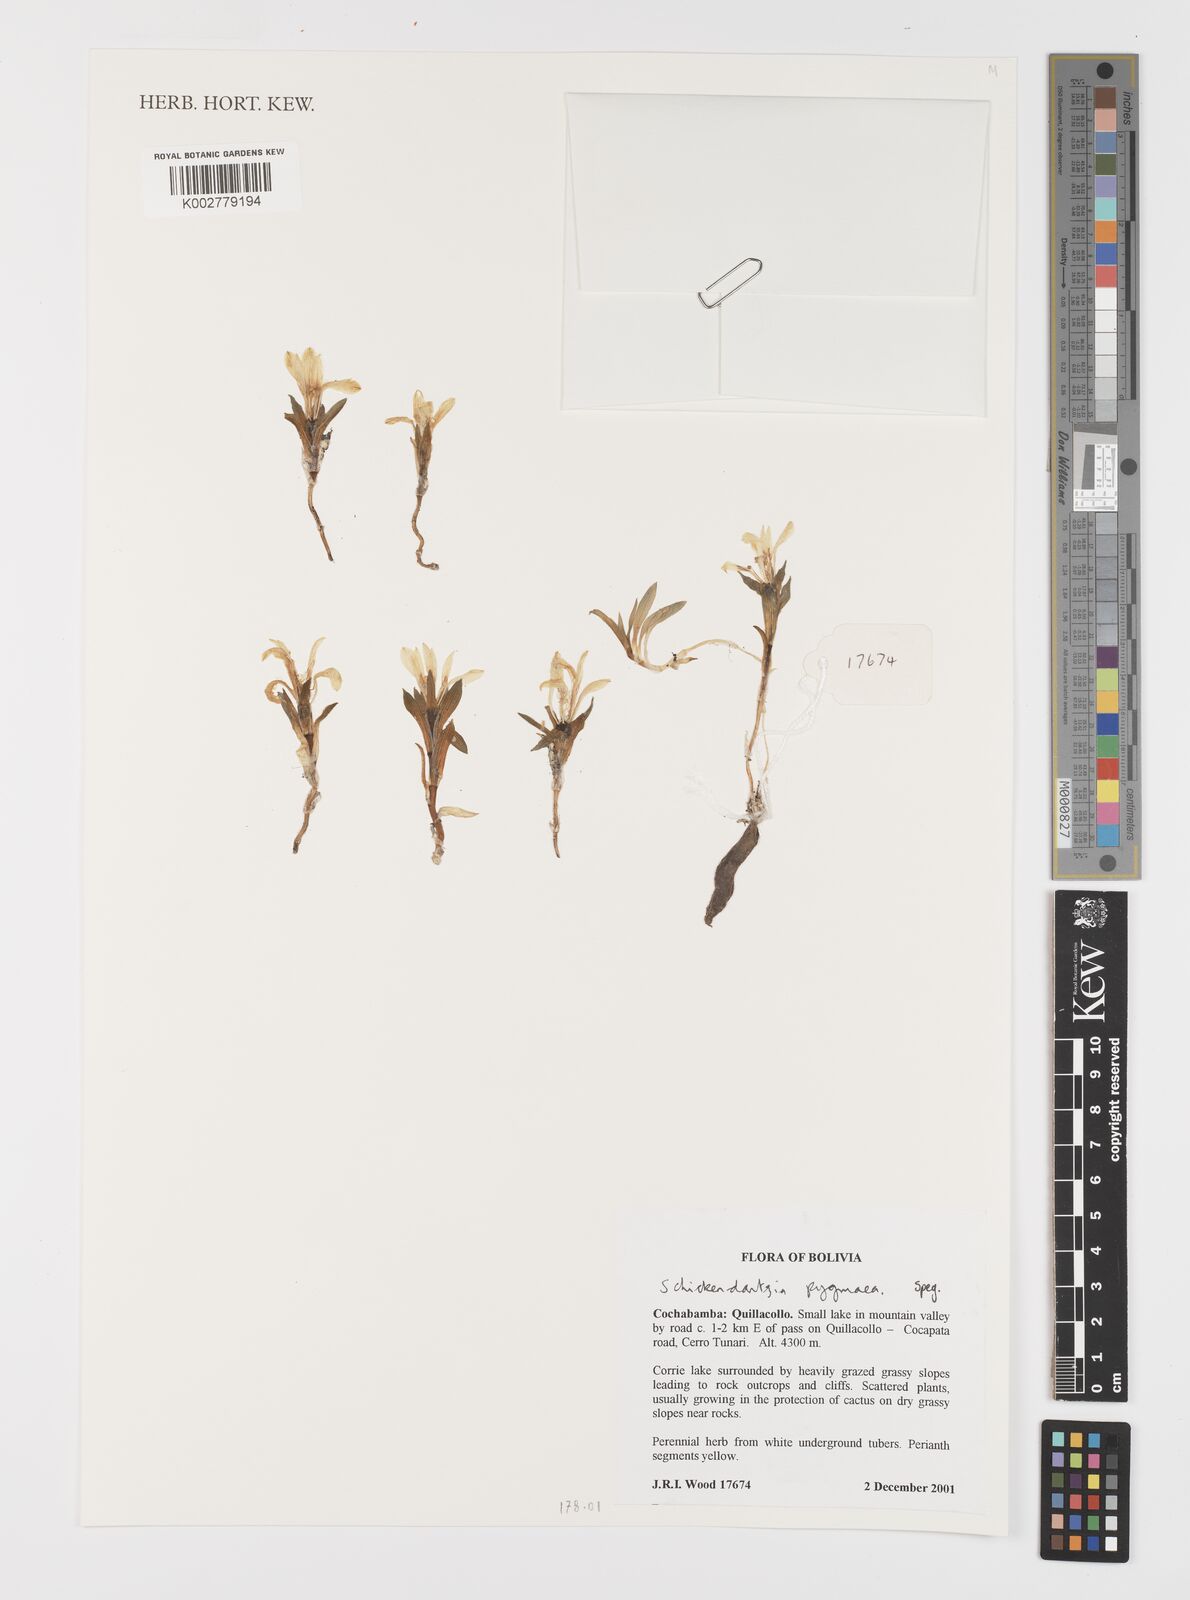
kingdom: Plantae
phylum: Tracheophyta
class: Liliopsida
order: Liliales
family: Alstroemeriaceae
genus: Alstroemeria
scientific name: Alstroemeria pygmaea
